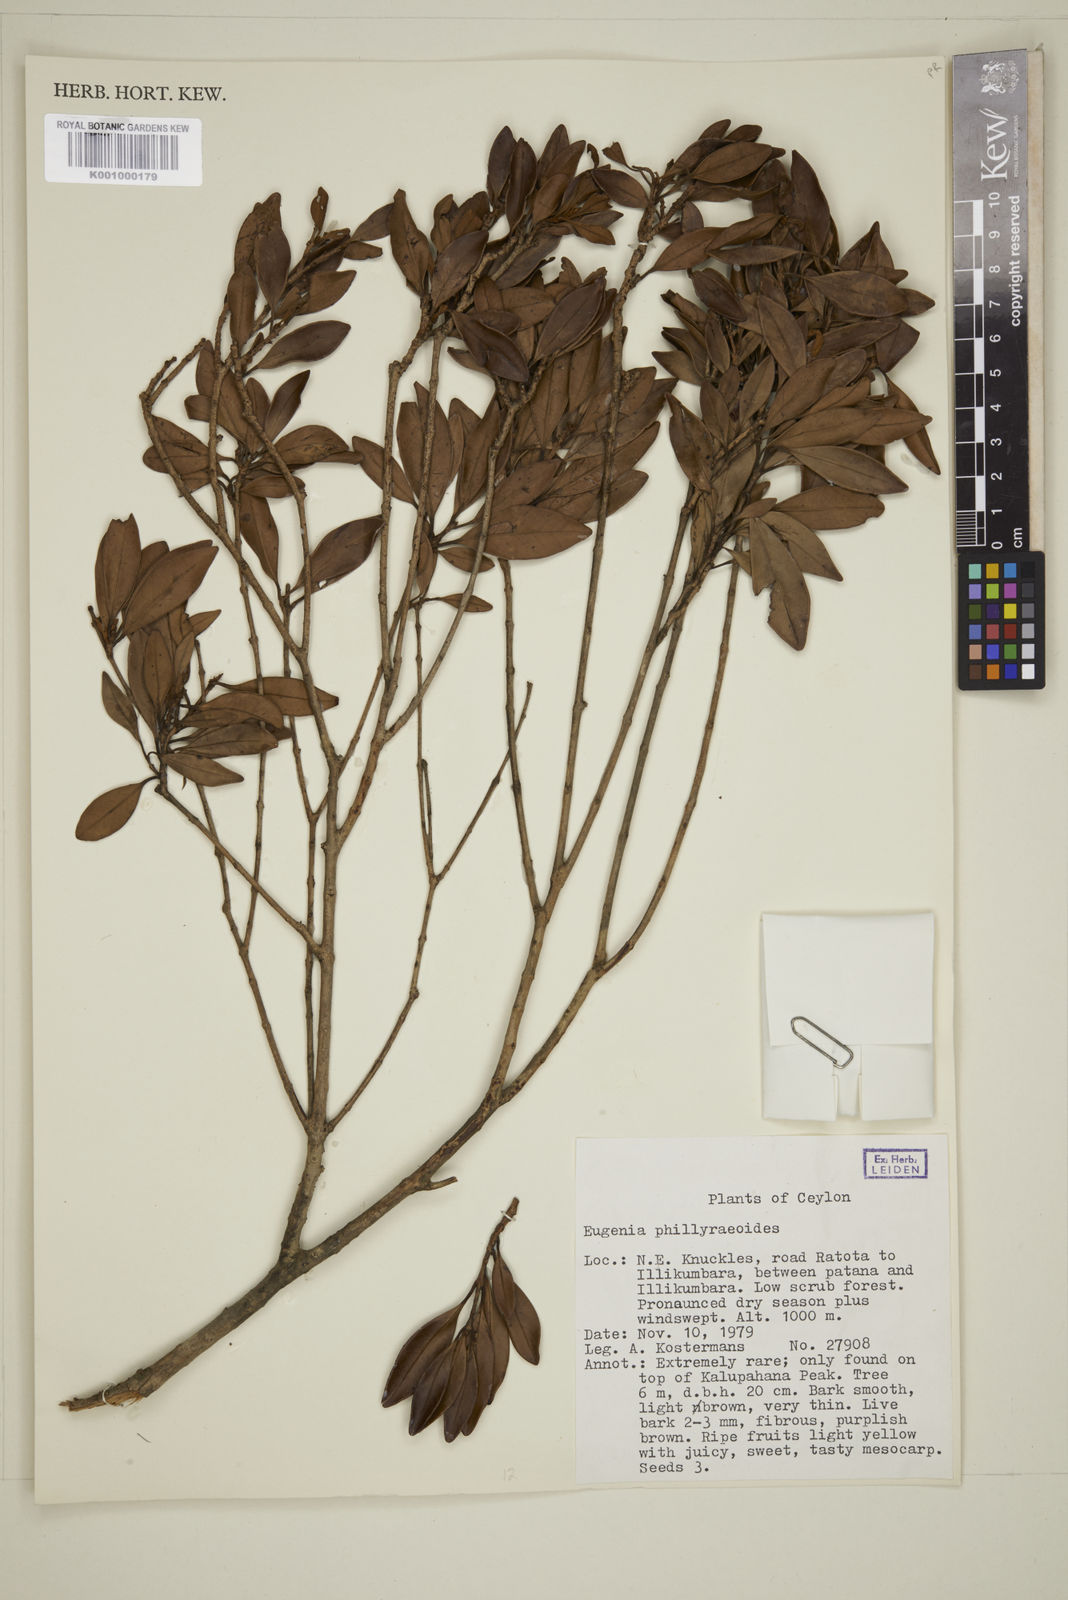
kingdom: Plantae
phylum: Tracheophyta
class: Magnoliopsida
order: Myrtales
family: Myrtaceae
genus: Eugenia
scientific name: Eugenia
